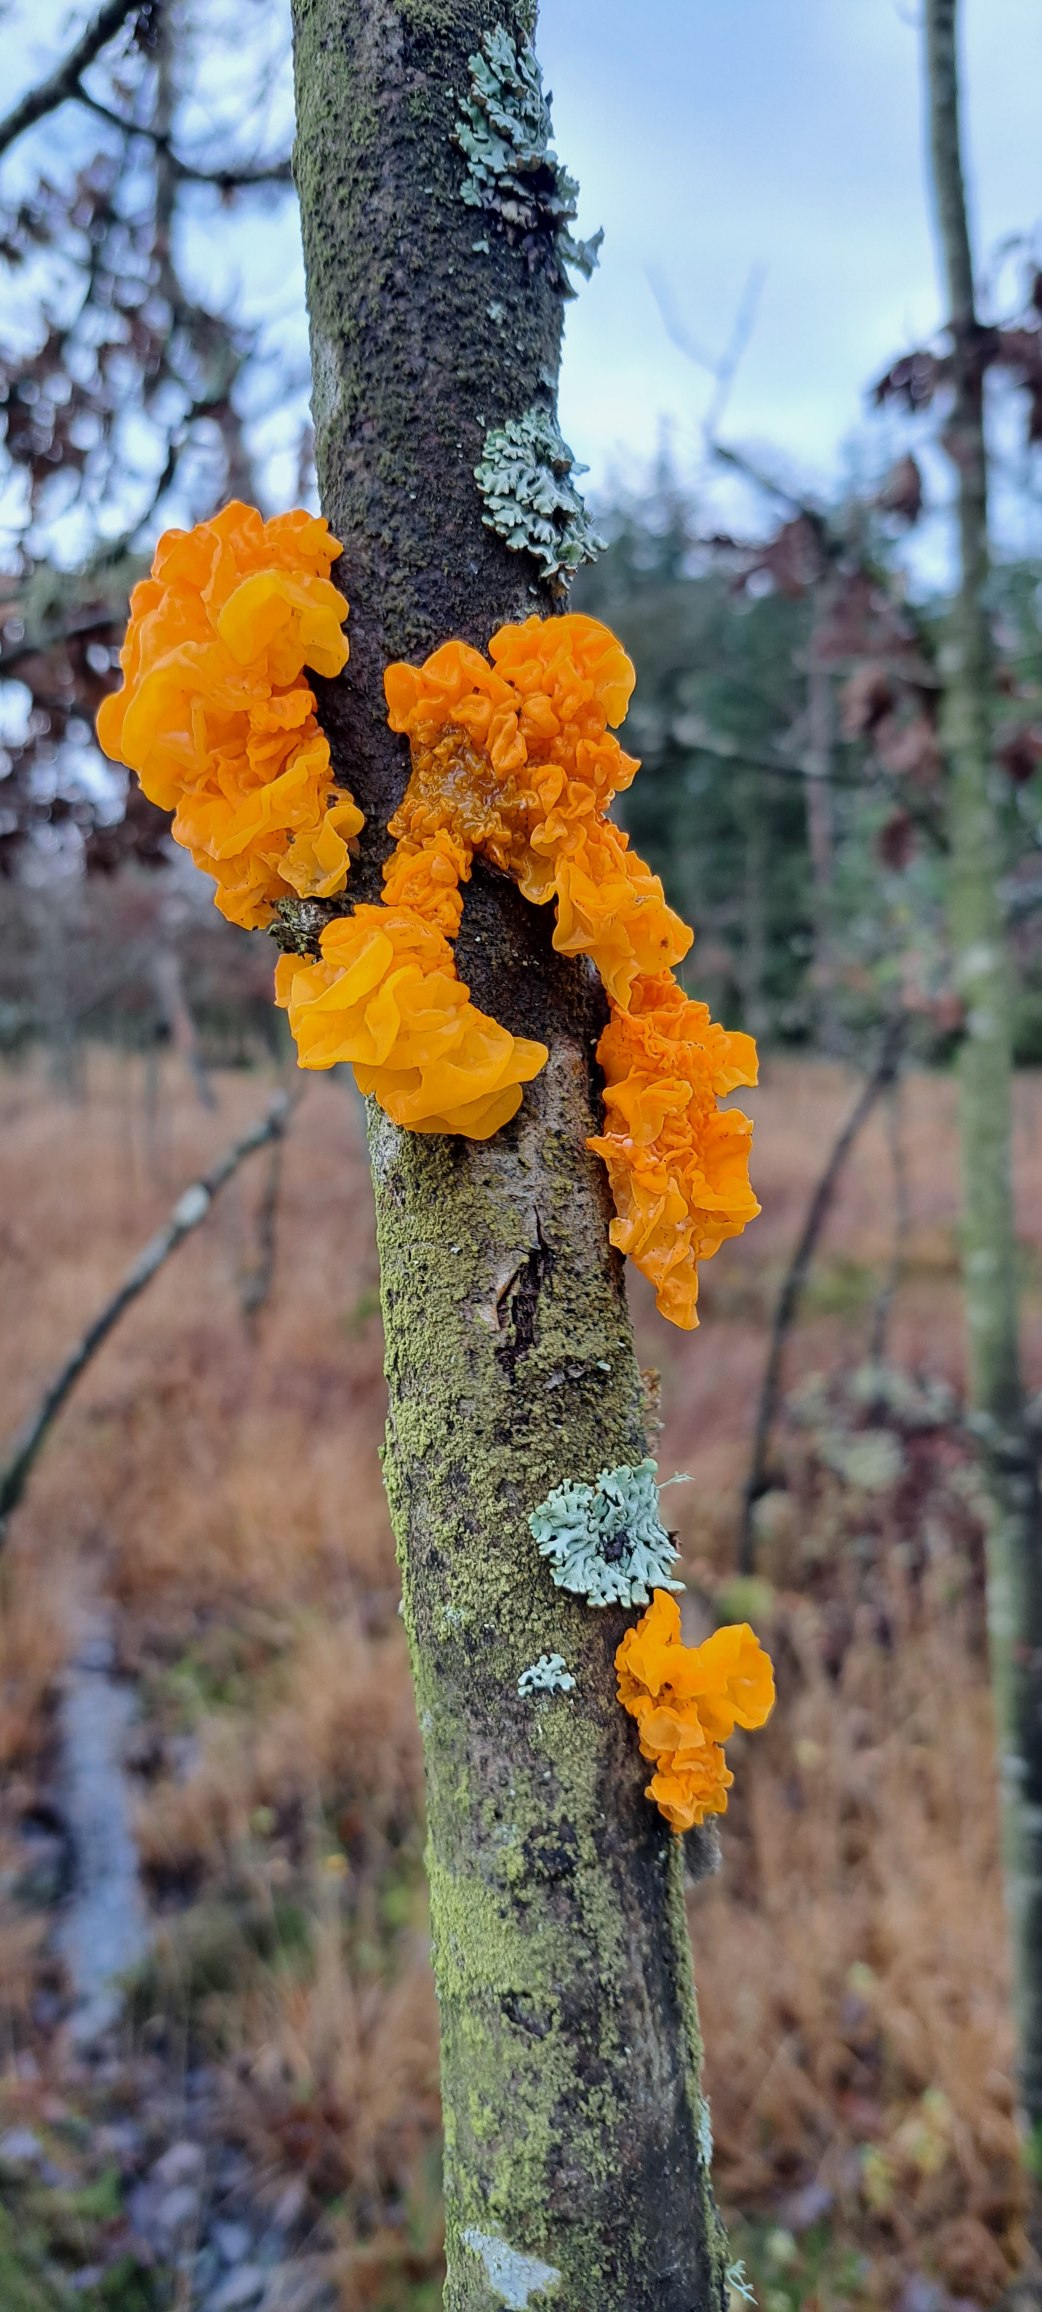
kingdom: Fungi
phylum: Basidiomycota
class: Tremellomycetes
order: Tremellales
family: Tremellaceae
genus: Tremella
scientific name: Tremella mesenterica
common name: Gul bævresvamp
